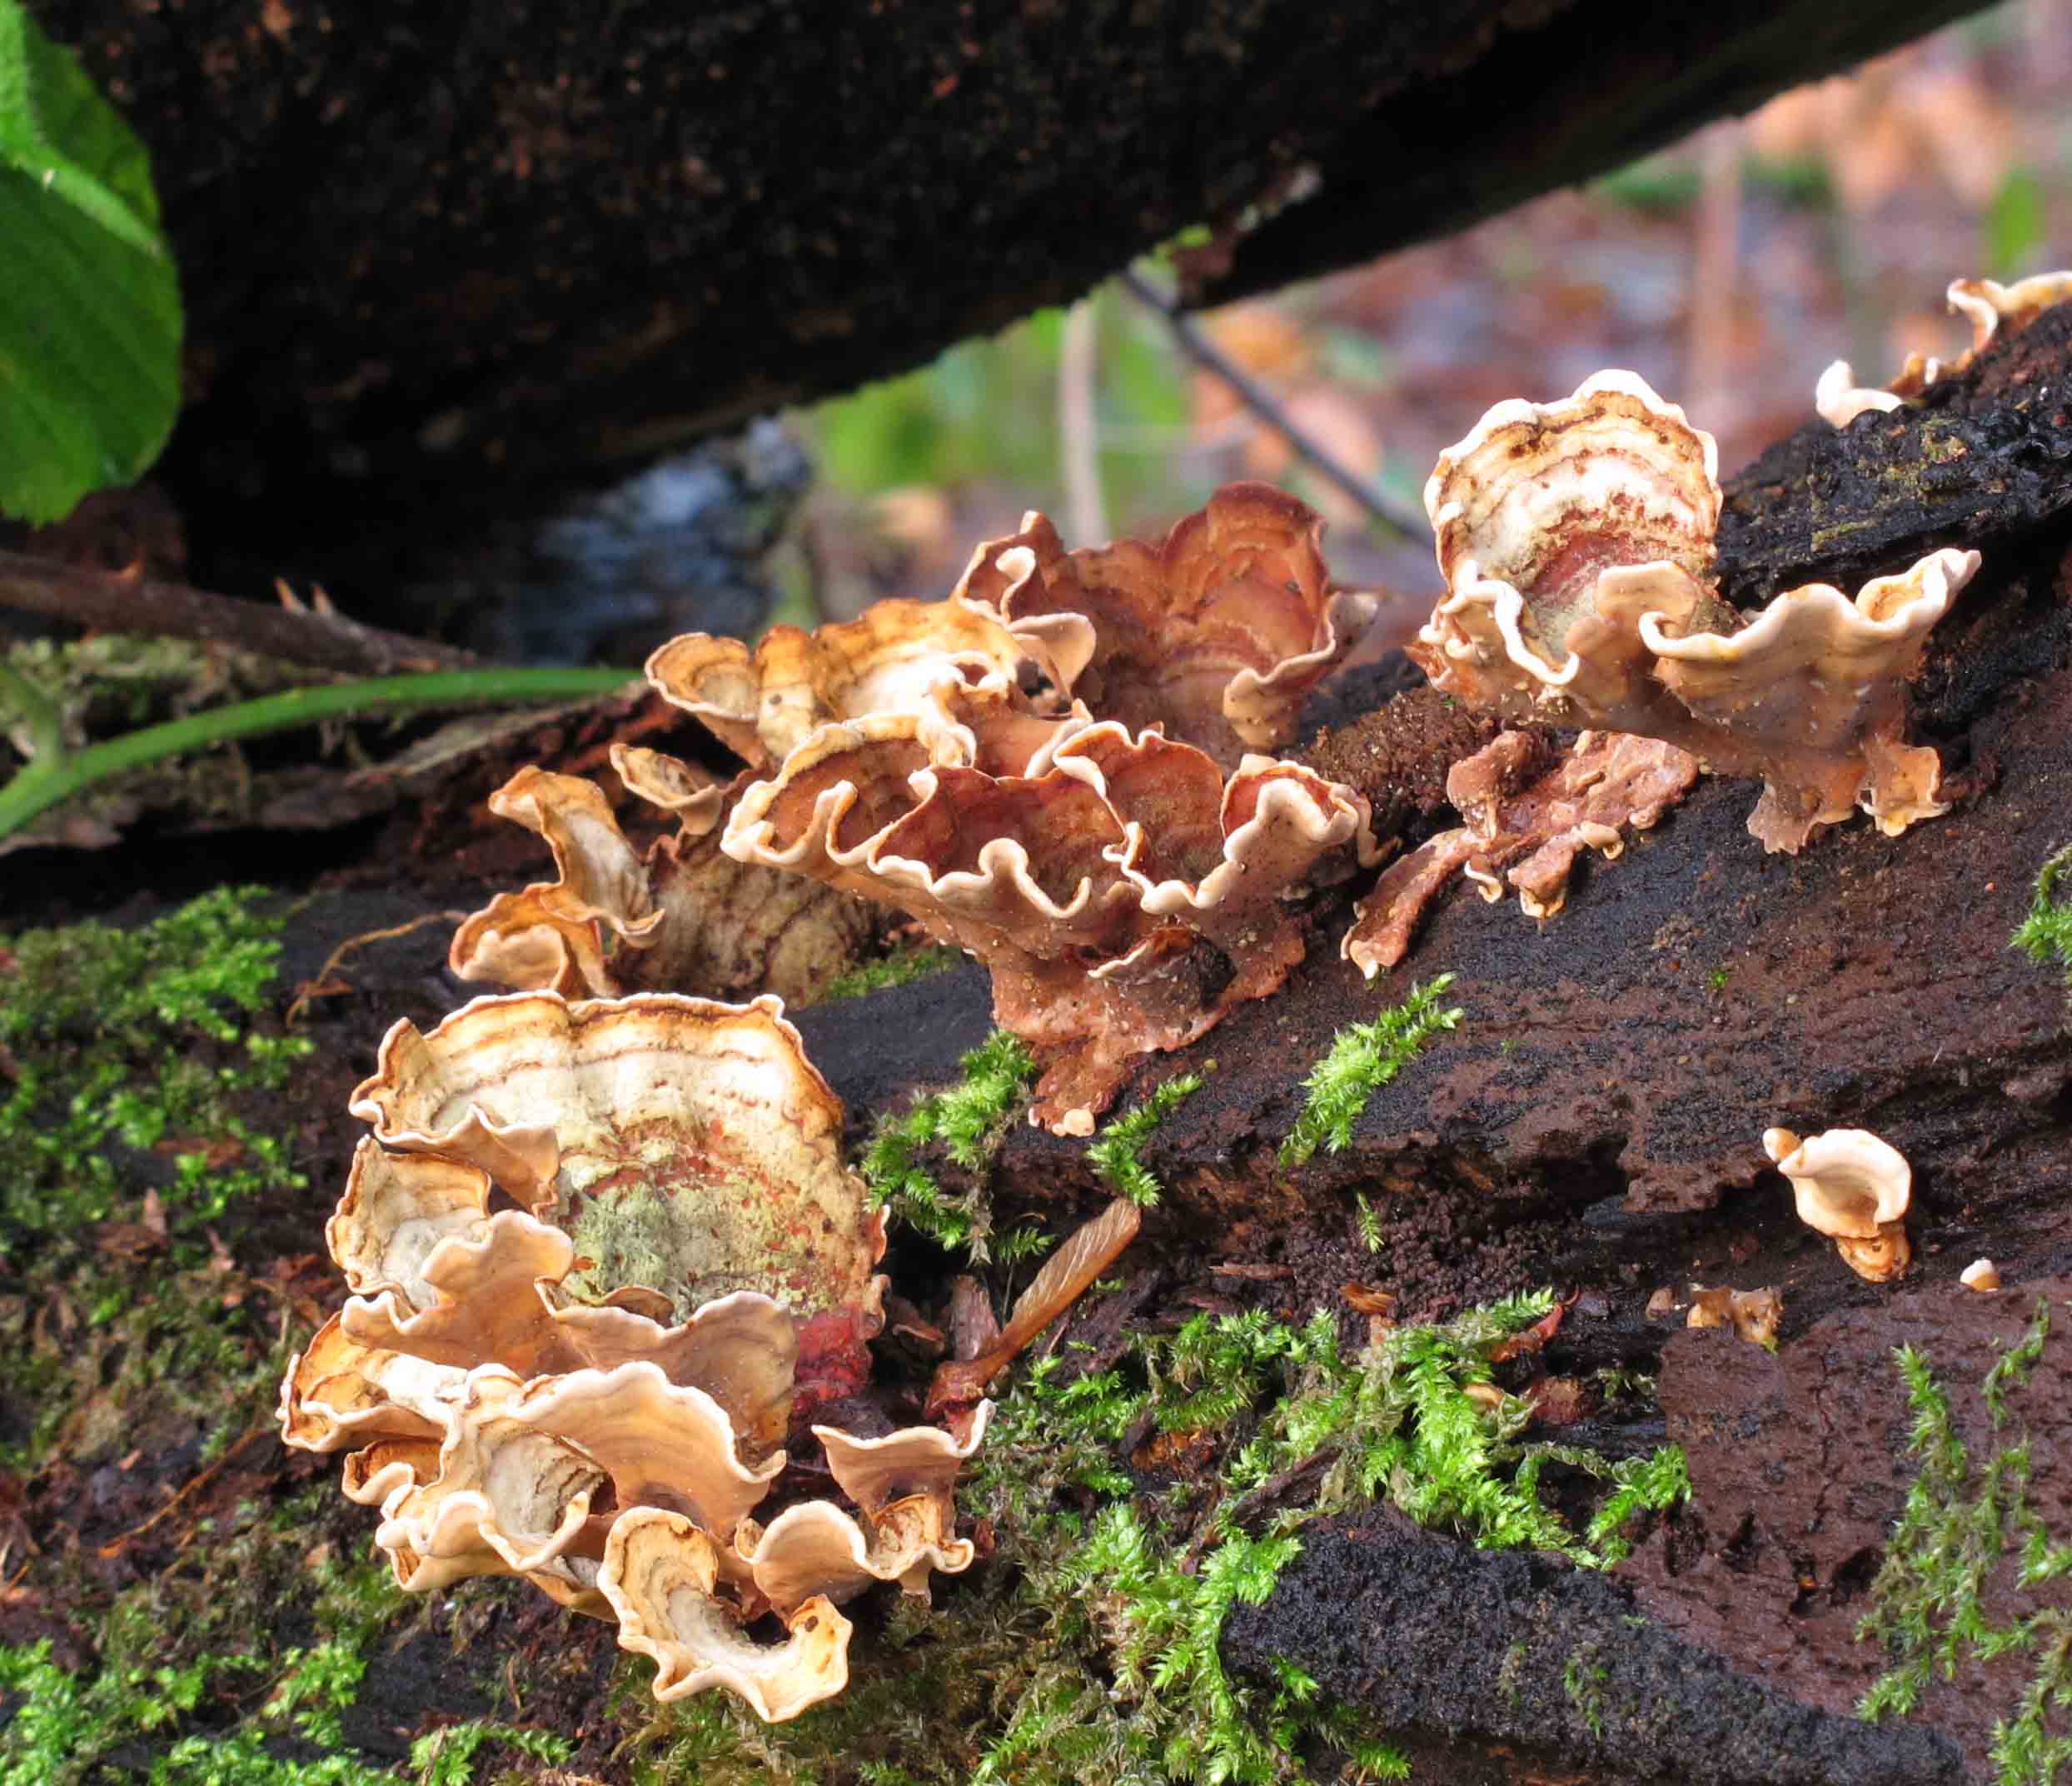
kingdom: Fungi
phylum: Basidiomycota
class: Agaricomycetes
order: Russulales
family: Stereaceae
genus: Stereum
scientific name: Stereum subtomentosum
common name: smuk lædersvamp
